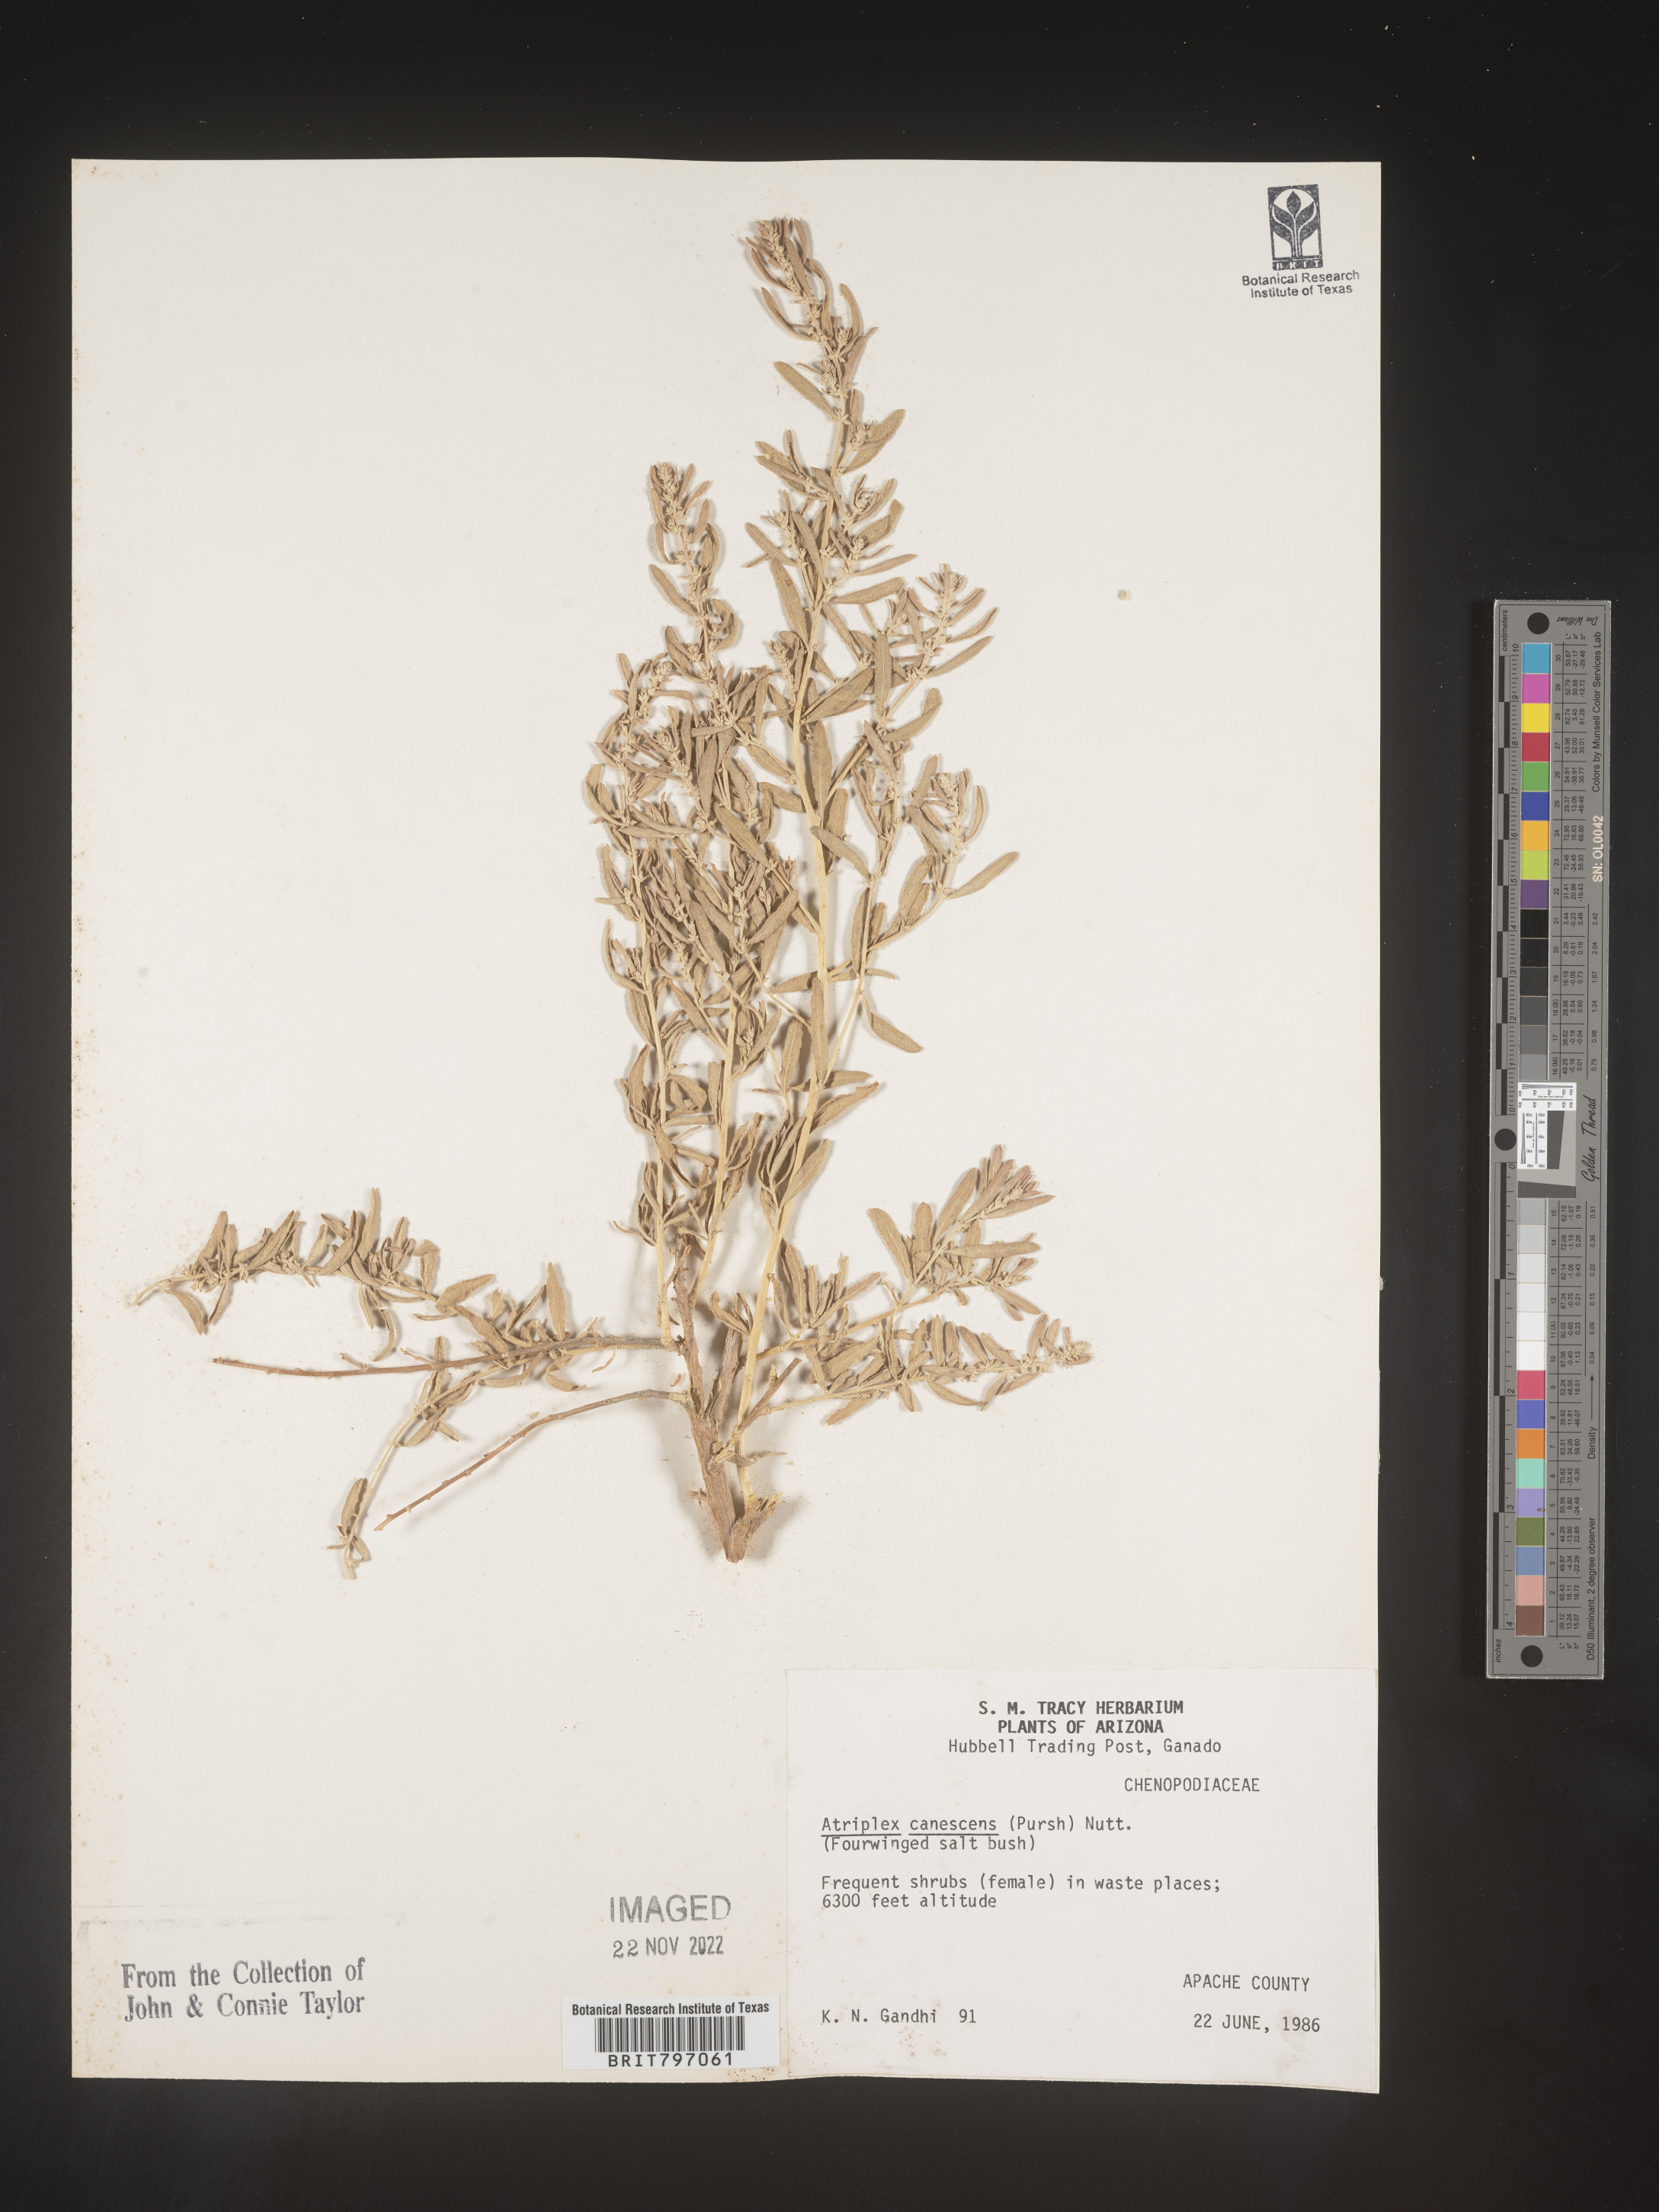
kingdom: Plantae
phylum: Tracheophyta
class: Magnoliopsida
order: Caryophyllales
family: Amaranthaceae
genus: Atriplex
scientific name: Atriplex canescens
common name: Four-wing saltbush
